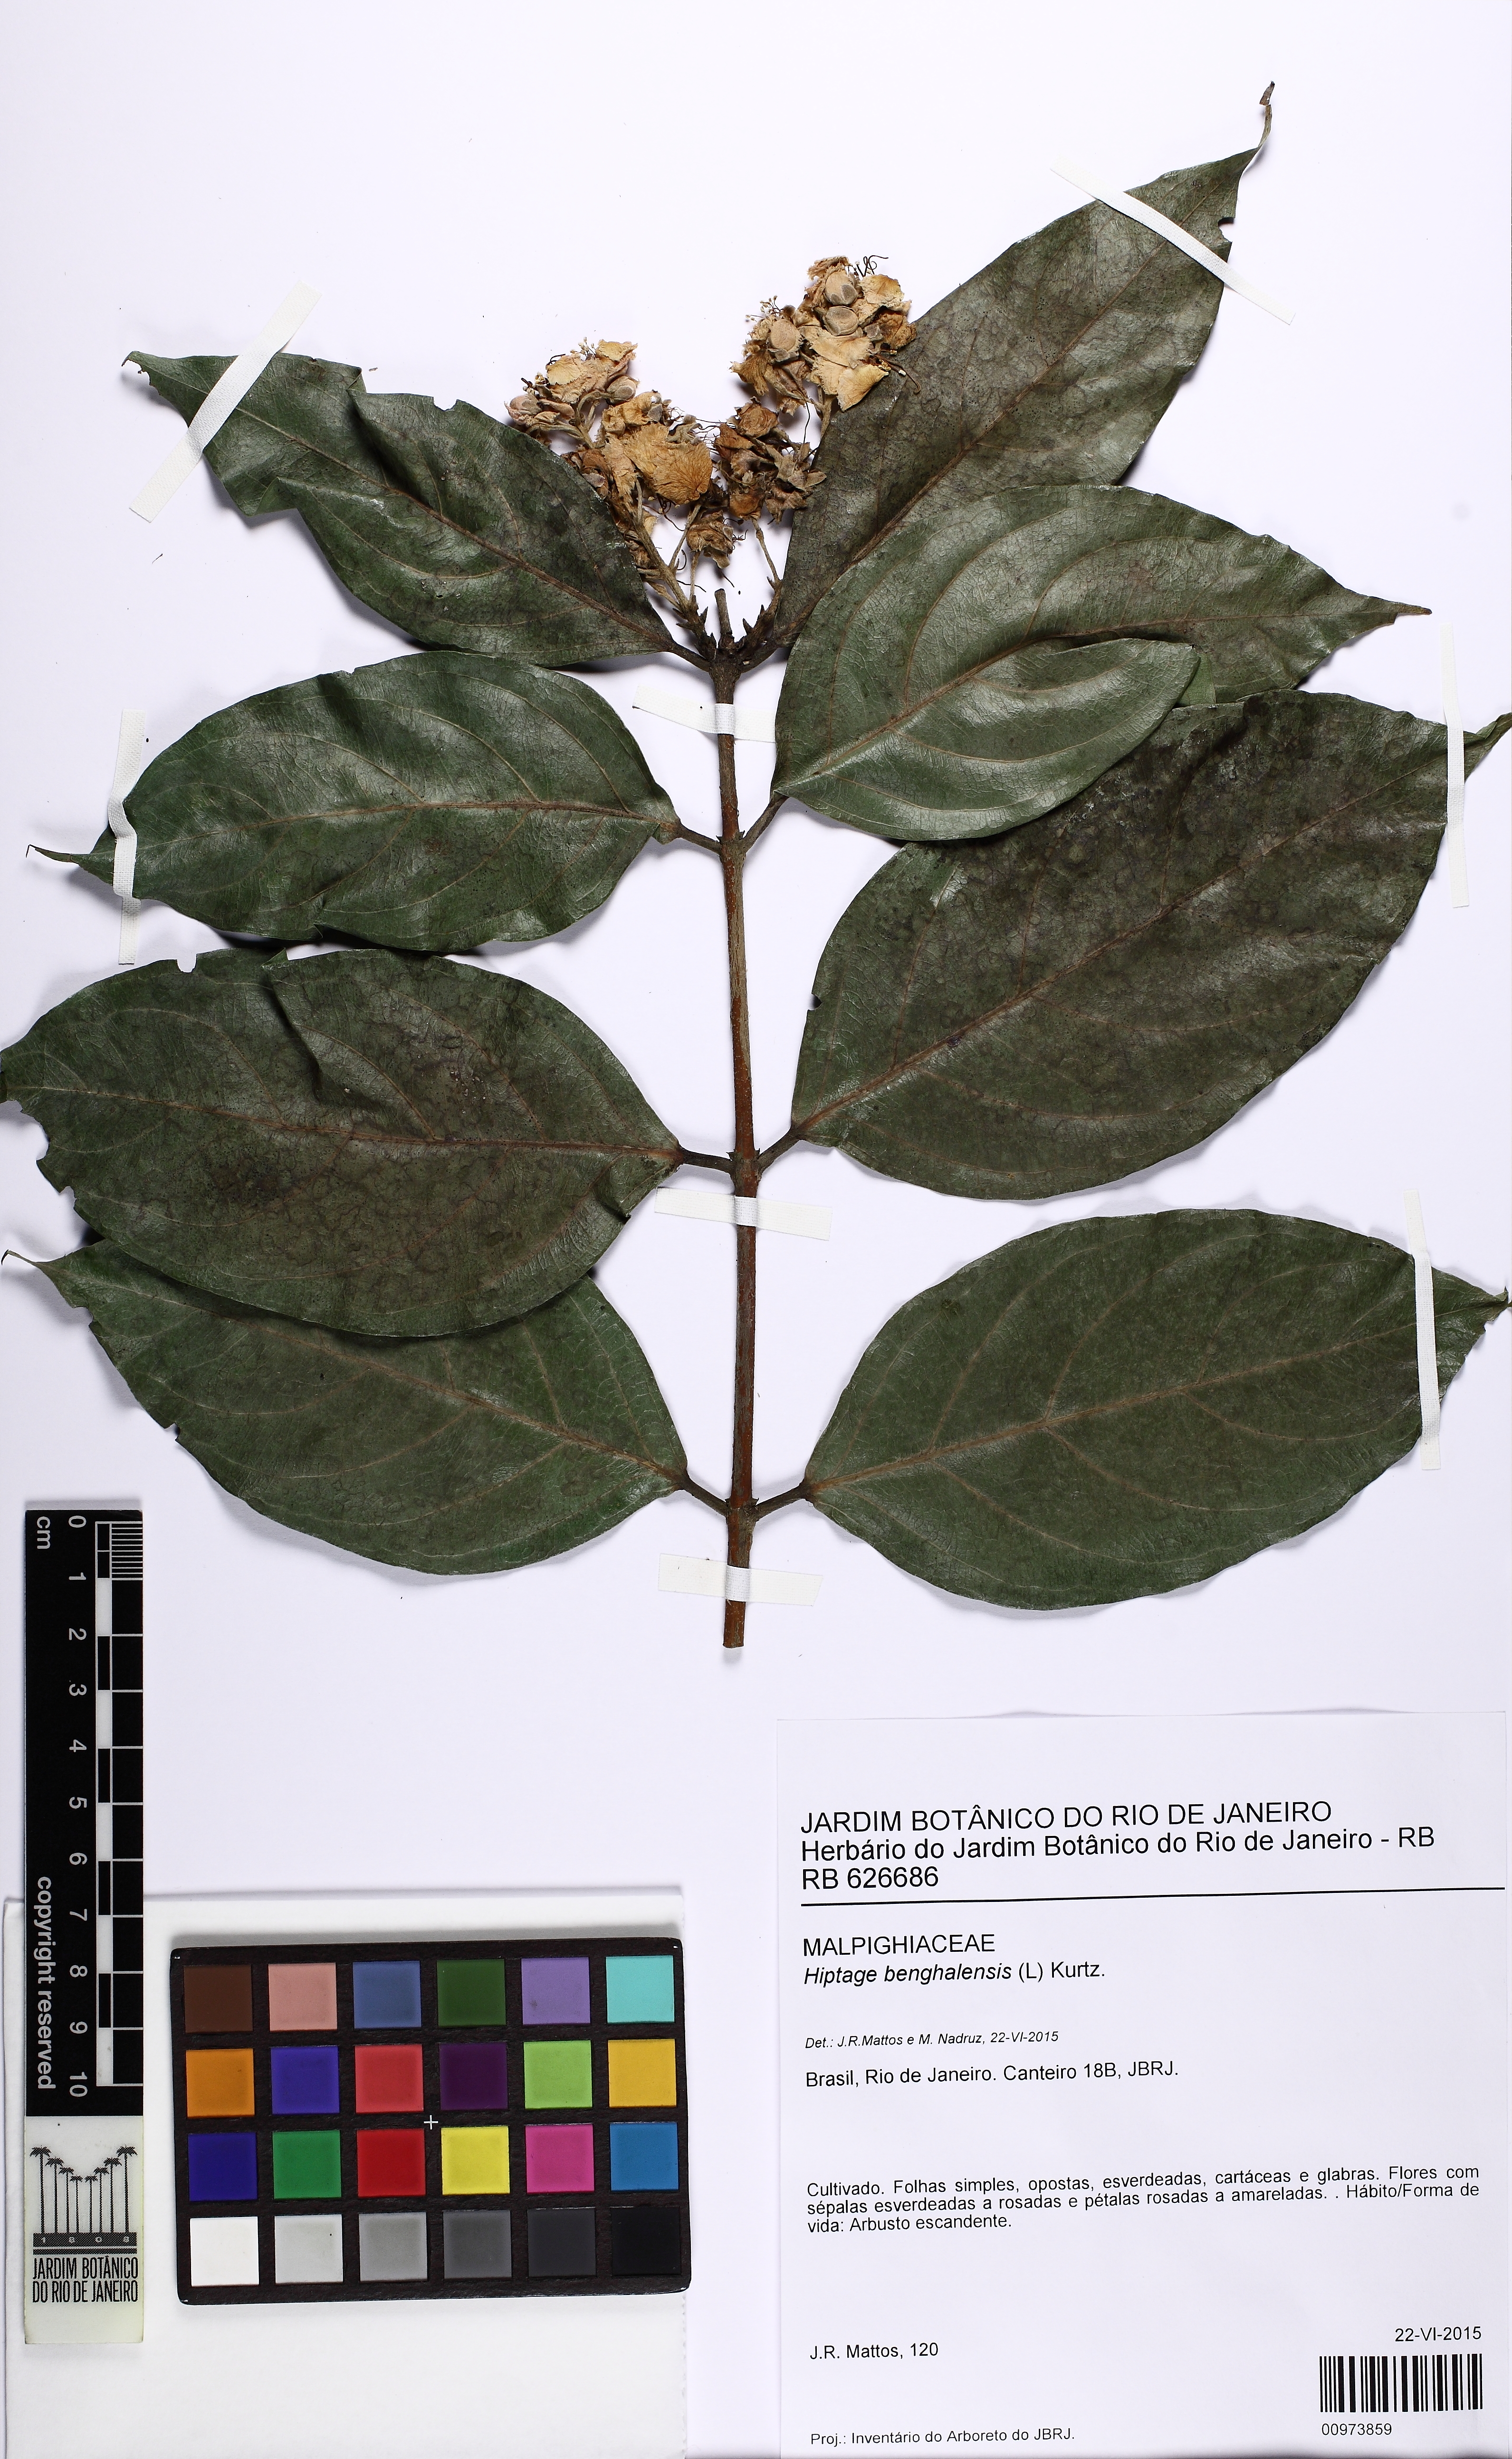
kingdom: Plantae
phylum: Tracheophyta
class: Magnoliopsida
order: Malpighiales
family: Malpighiaceae
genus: Hiptage
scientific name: Hiptage benghalensis
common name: Hiptage
